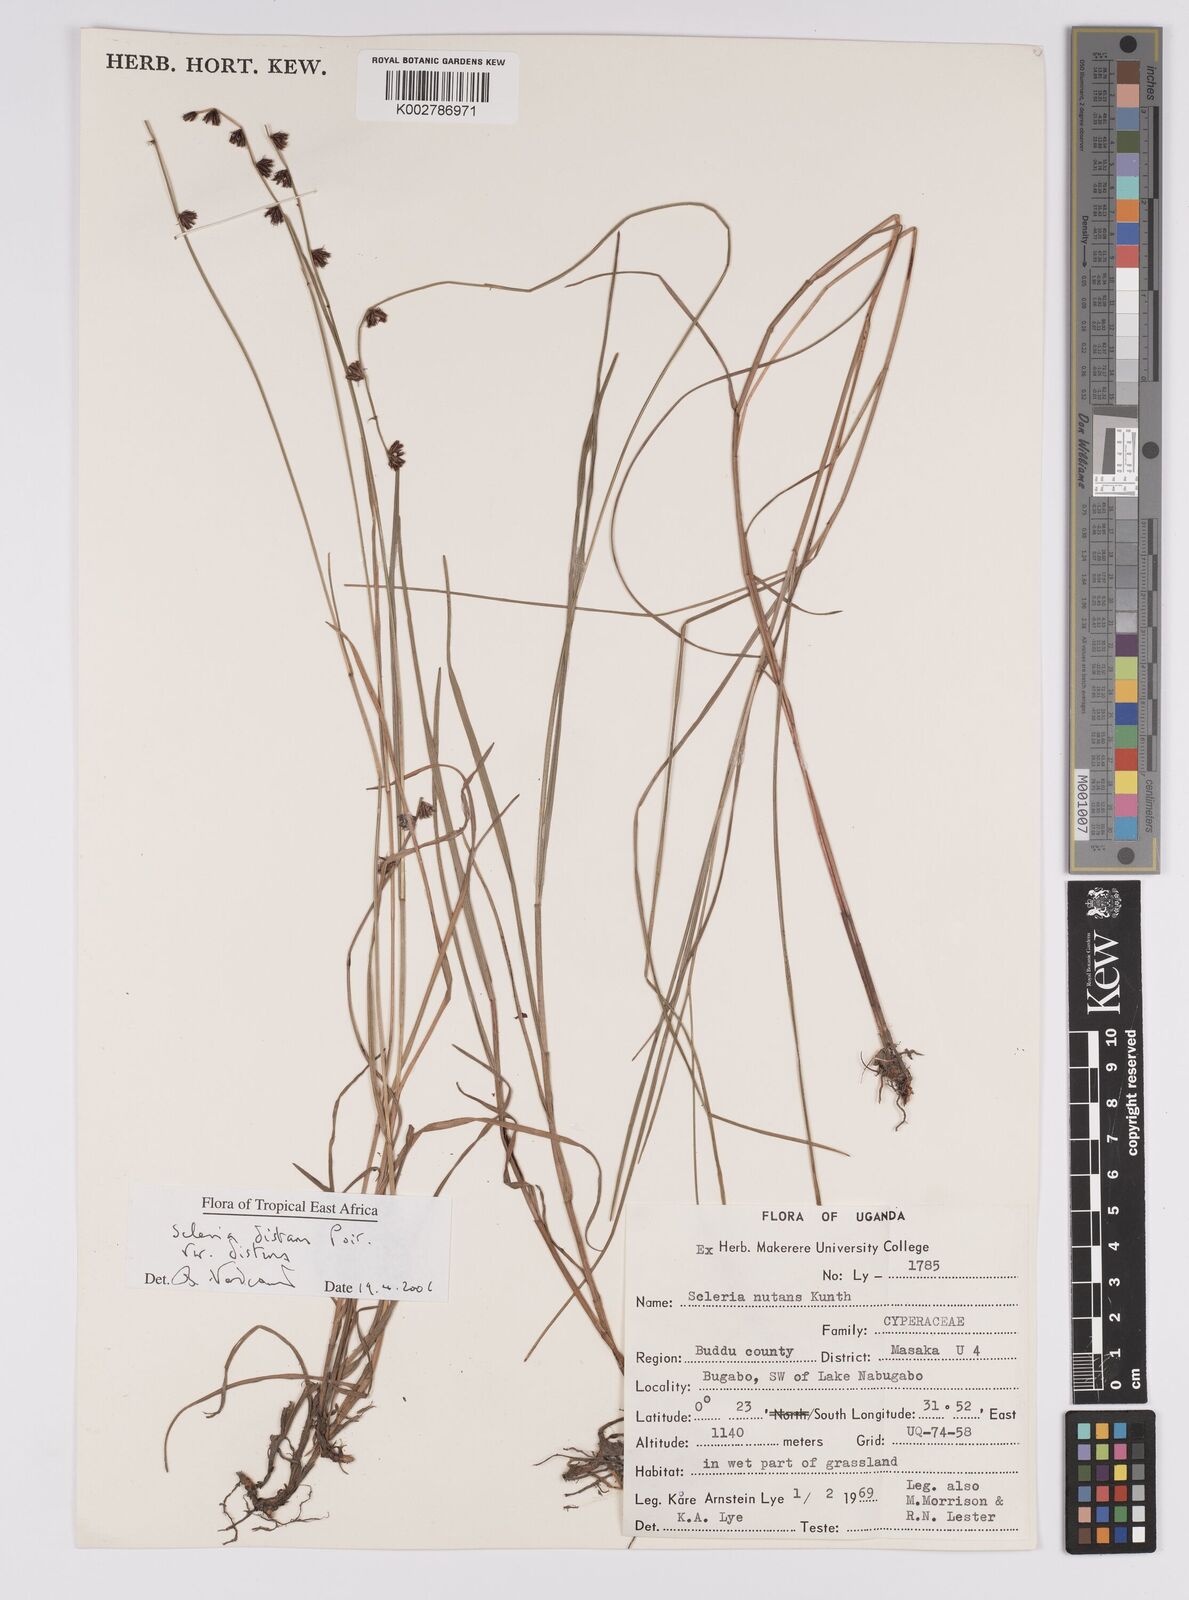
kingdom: Plantae
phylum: Tracheophyta
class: Liliopsida
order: Poales
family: Cyperaceae
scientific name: Cyperaceae
